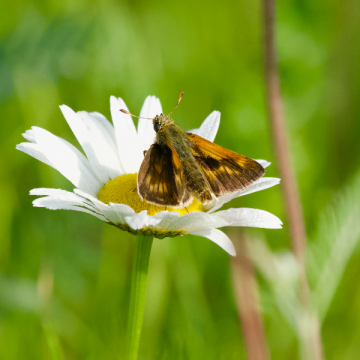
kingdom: Animalia
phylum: Arthropoda
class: Insecta
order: Lepidoptera
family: Hesperiidae
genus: Polites
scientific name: Polites
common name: Long Dash Skipper
